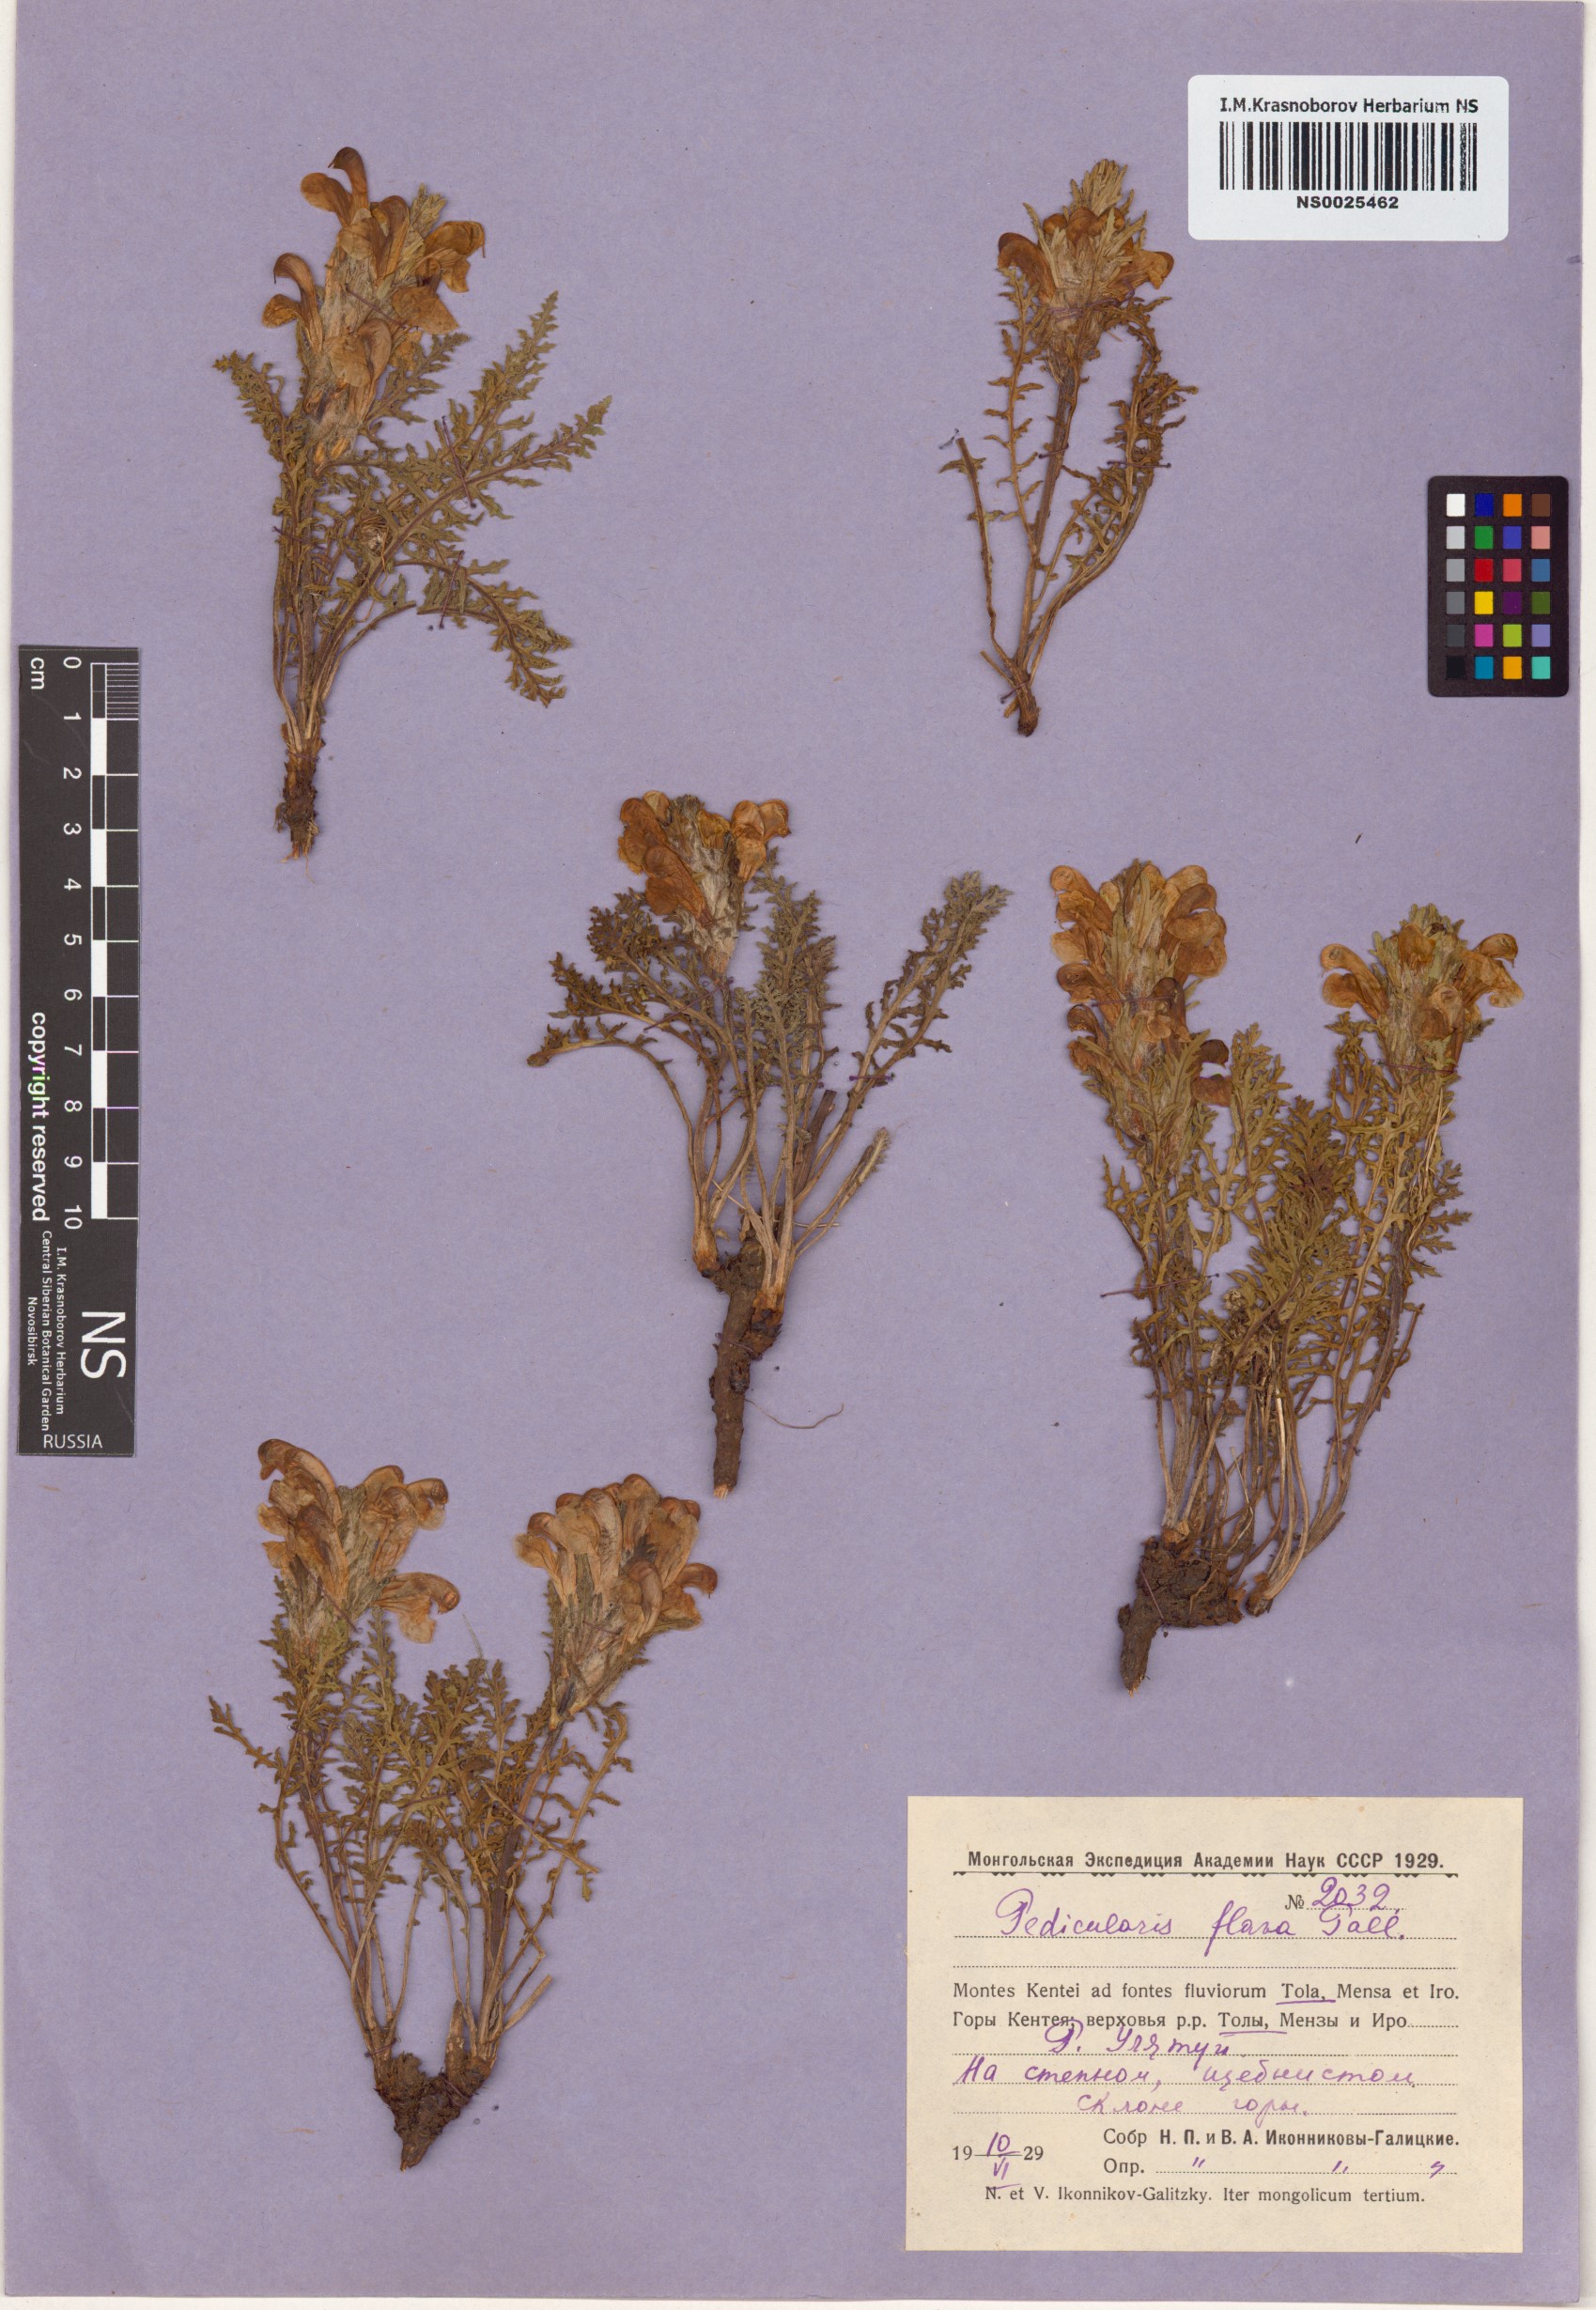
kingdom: Plantae
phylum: Tracheophyta
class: Magnoliopsida
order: Lamiales
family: Orobanchaceae
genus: Pedicularis
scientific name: Pedicularis flava
